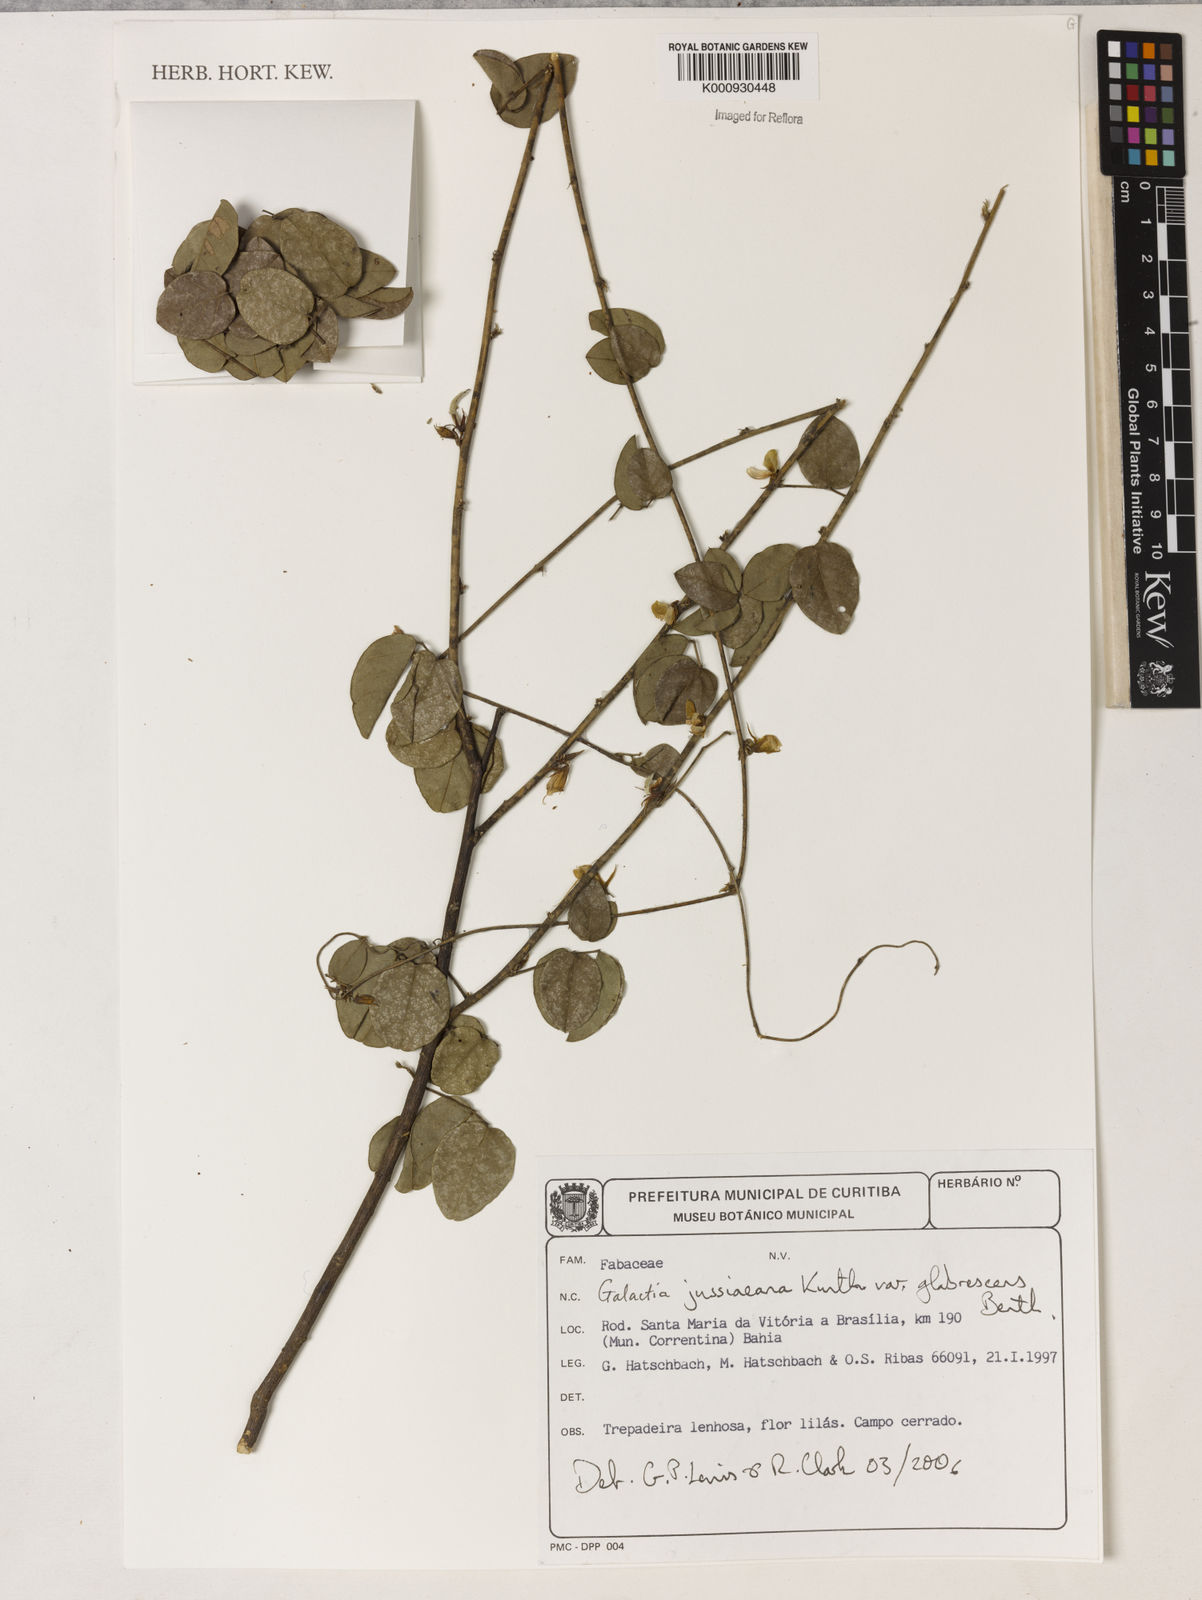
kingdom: Plantae
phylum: Tracheophyta
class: Magnoliopsida
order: Fabales
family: Fabaceae
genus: Galactia
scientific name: Galactia jussiaeana
